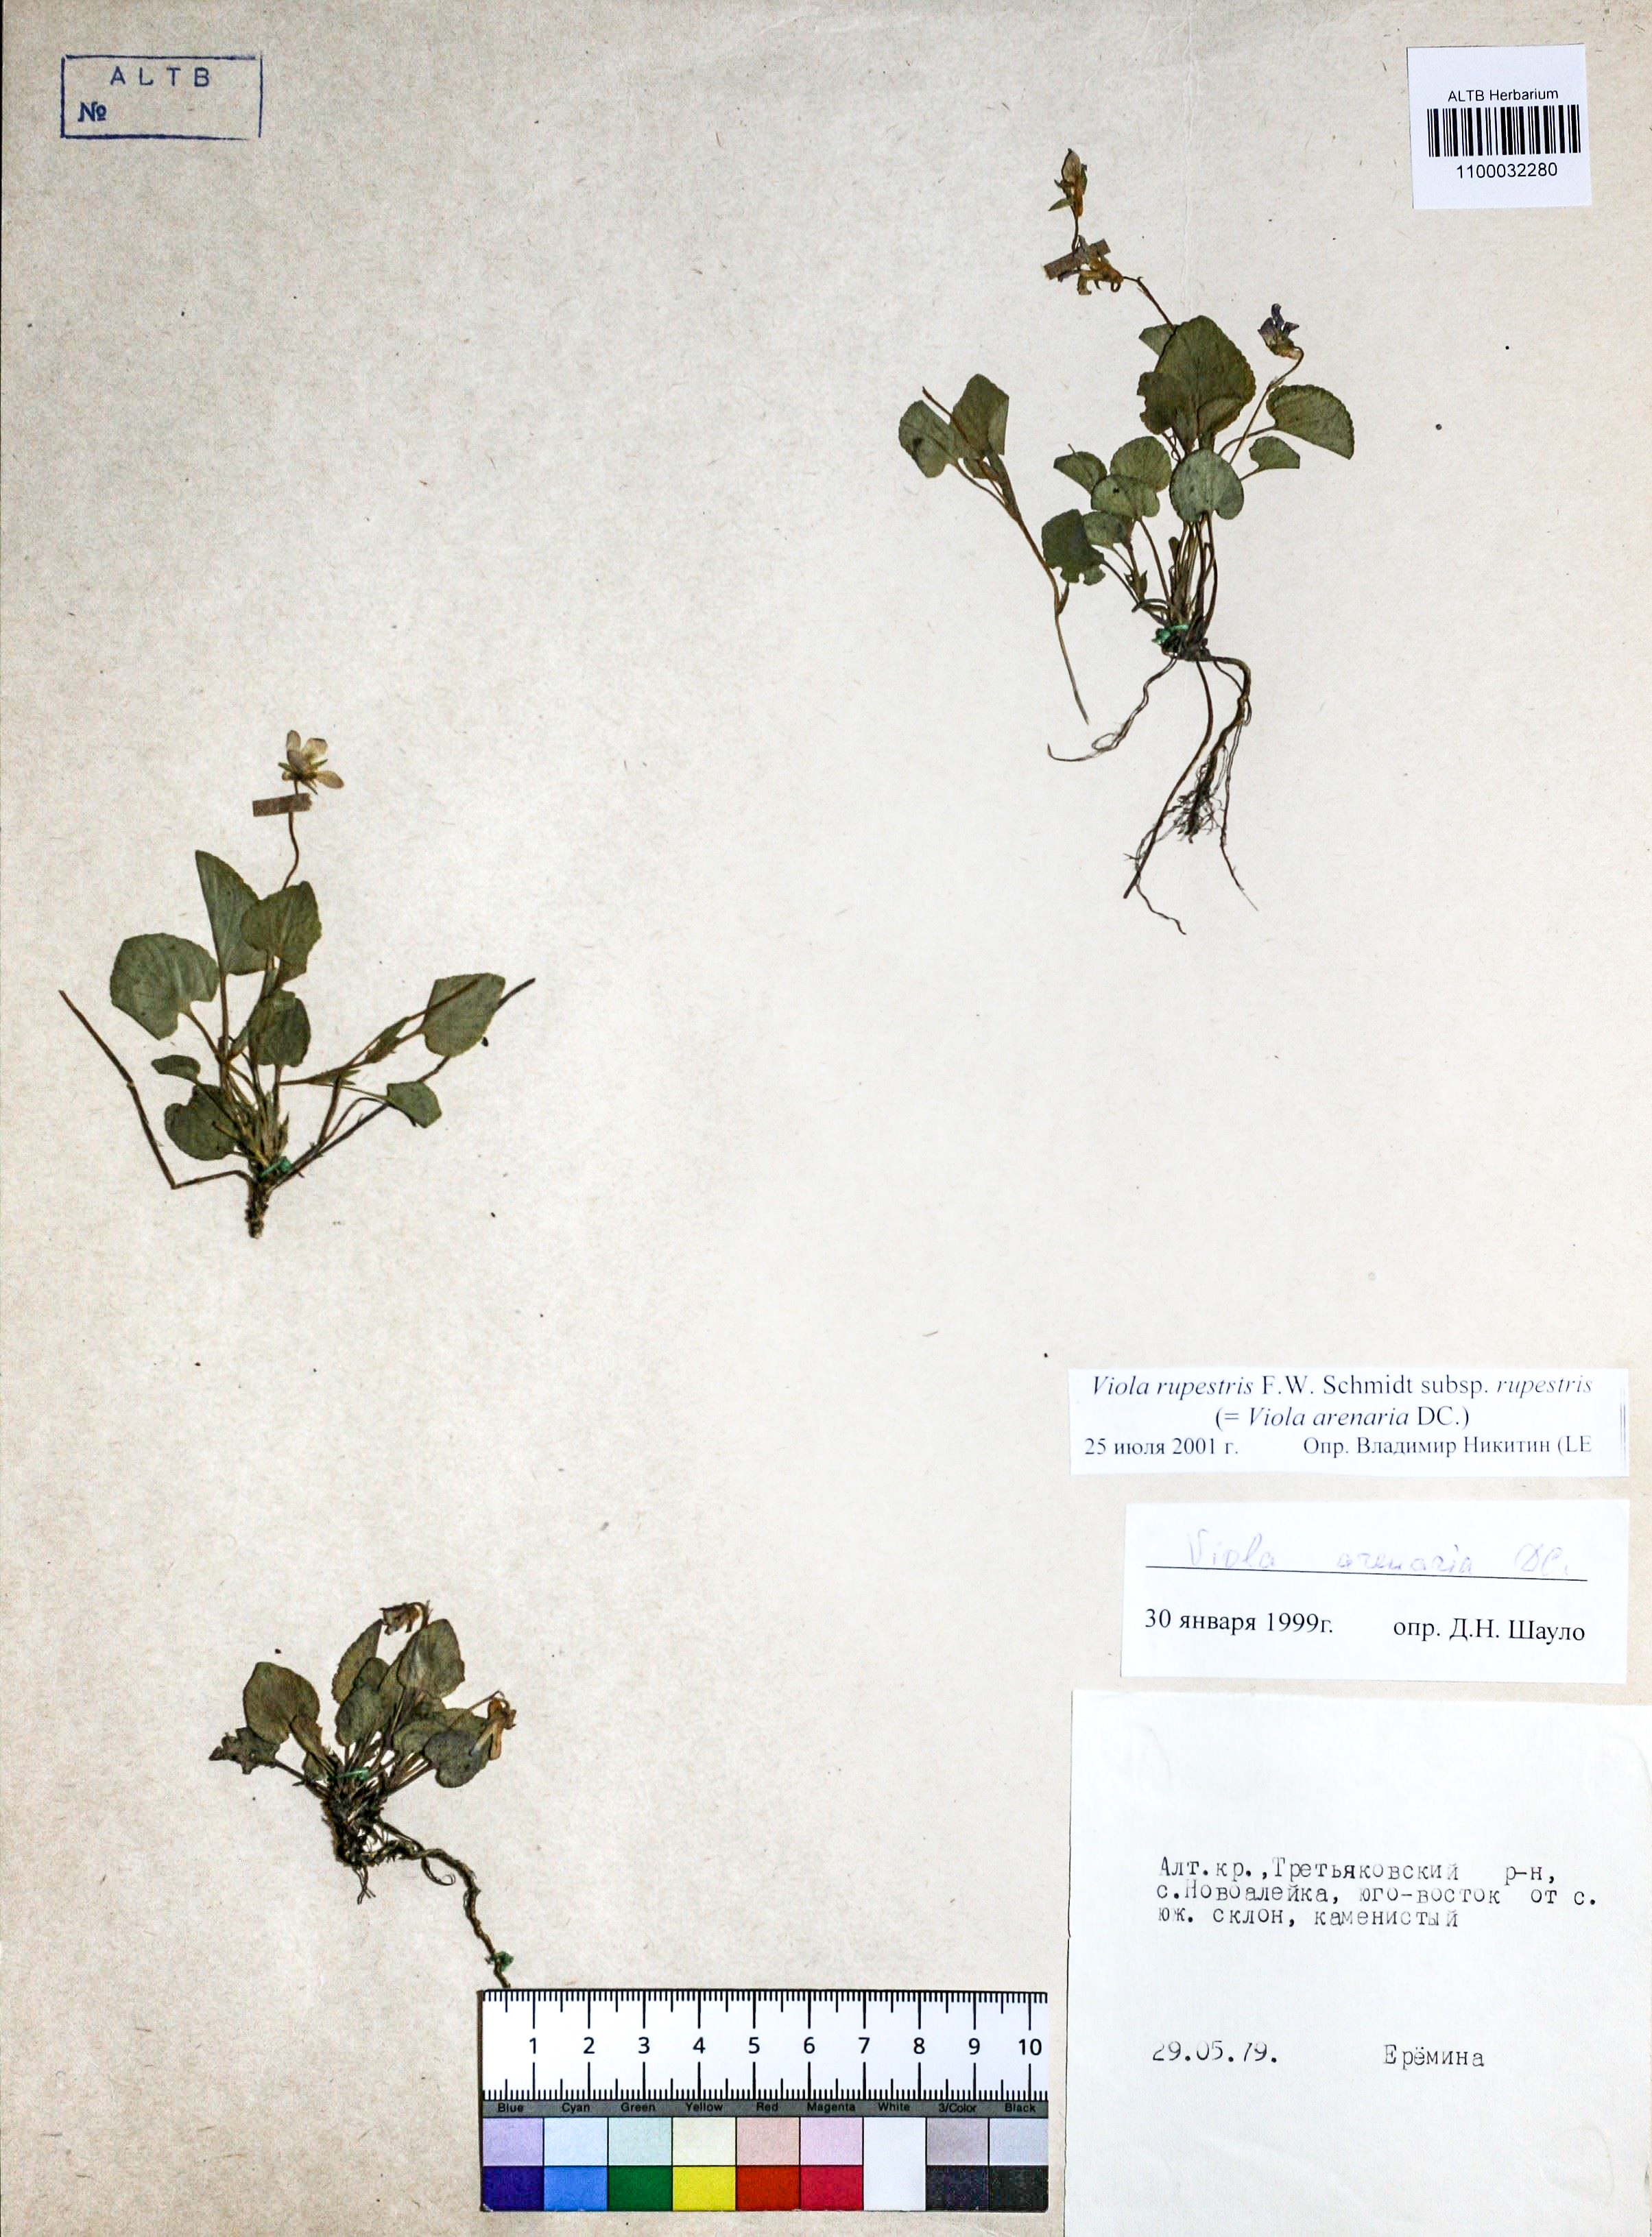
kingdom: Plantae
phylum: Tracheophyta
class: Magnoliopsida
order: Malpighiales
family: Violaceae
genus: Viola
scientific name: Viola rupestris
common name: Teesdale violet
